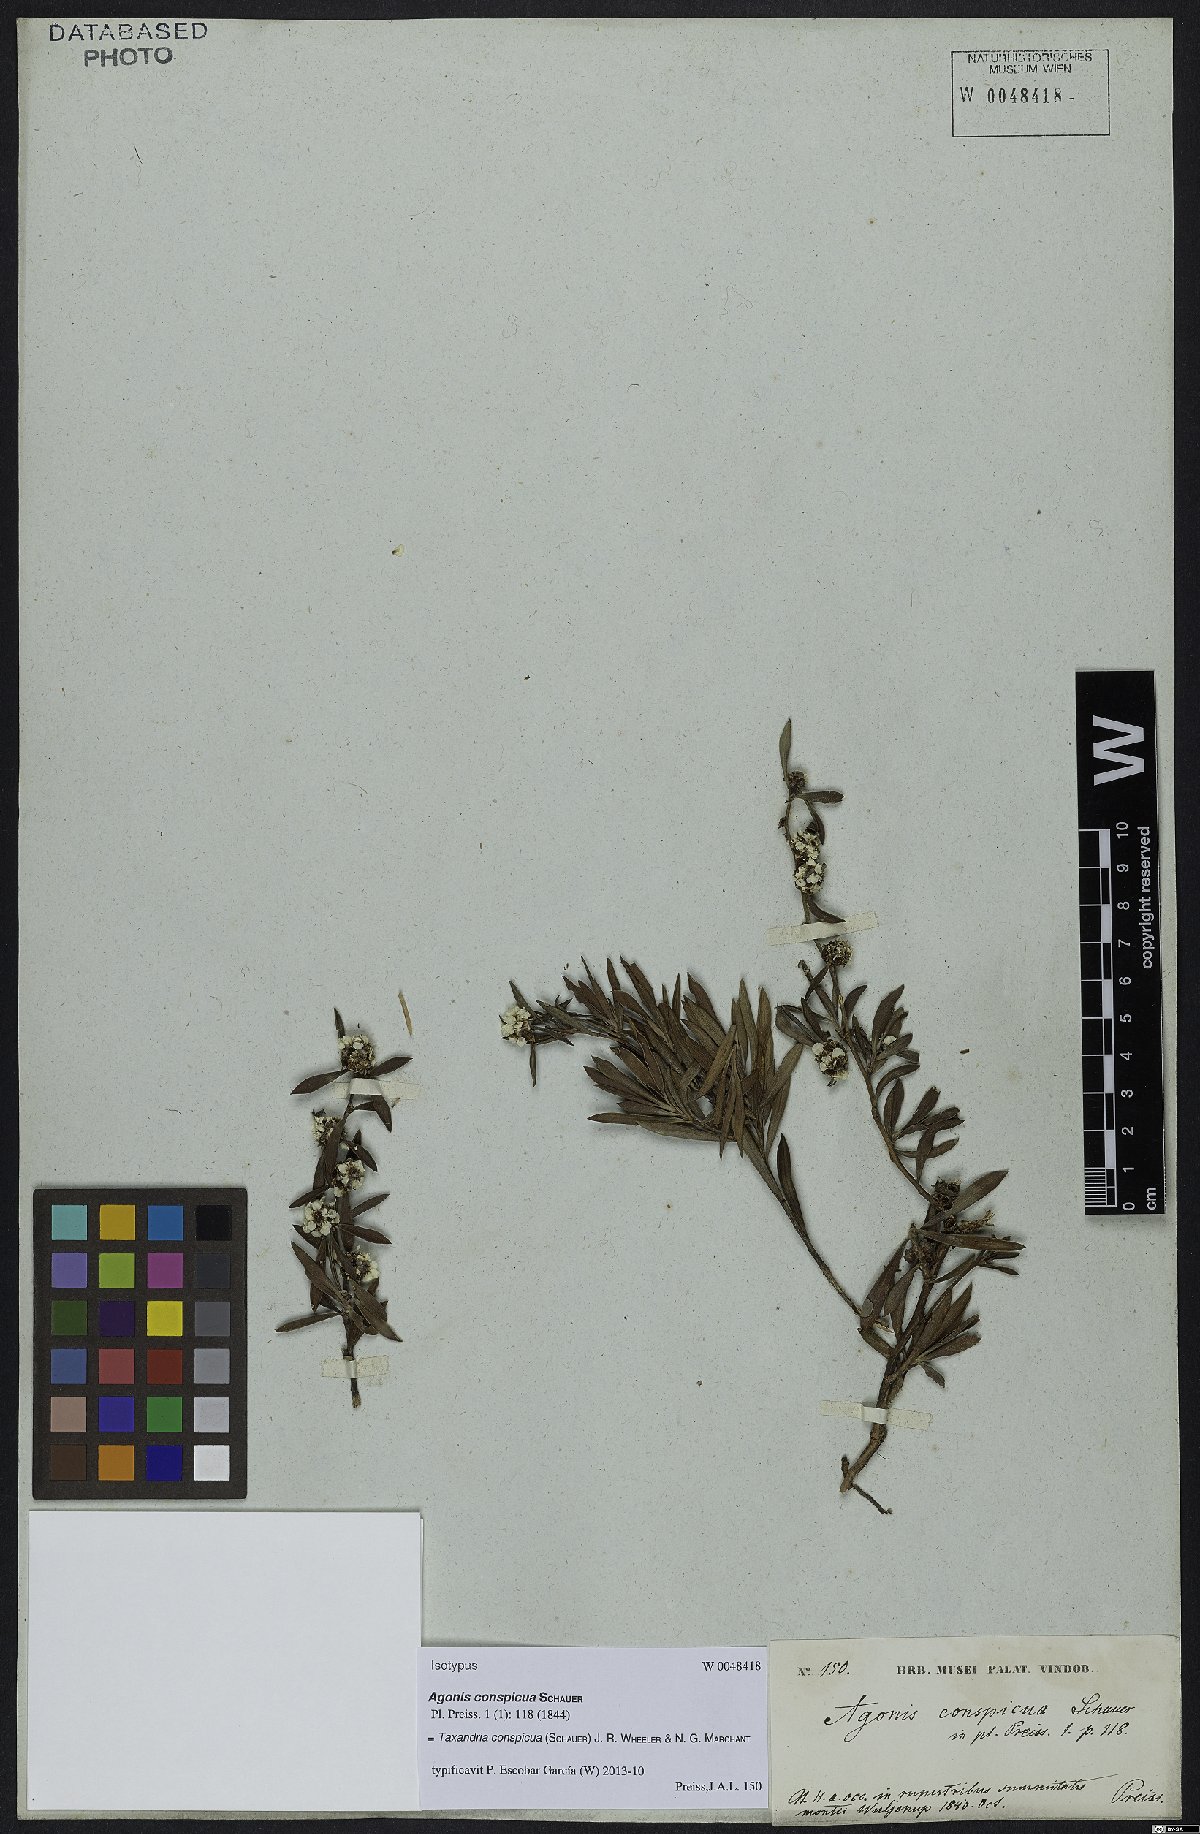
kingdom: Plantae
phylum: Tracheophyta
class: Magnoliopsida
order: Myrtales
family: Myrtaceae
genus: Taxandria
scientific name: Taxandria conspicua
